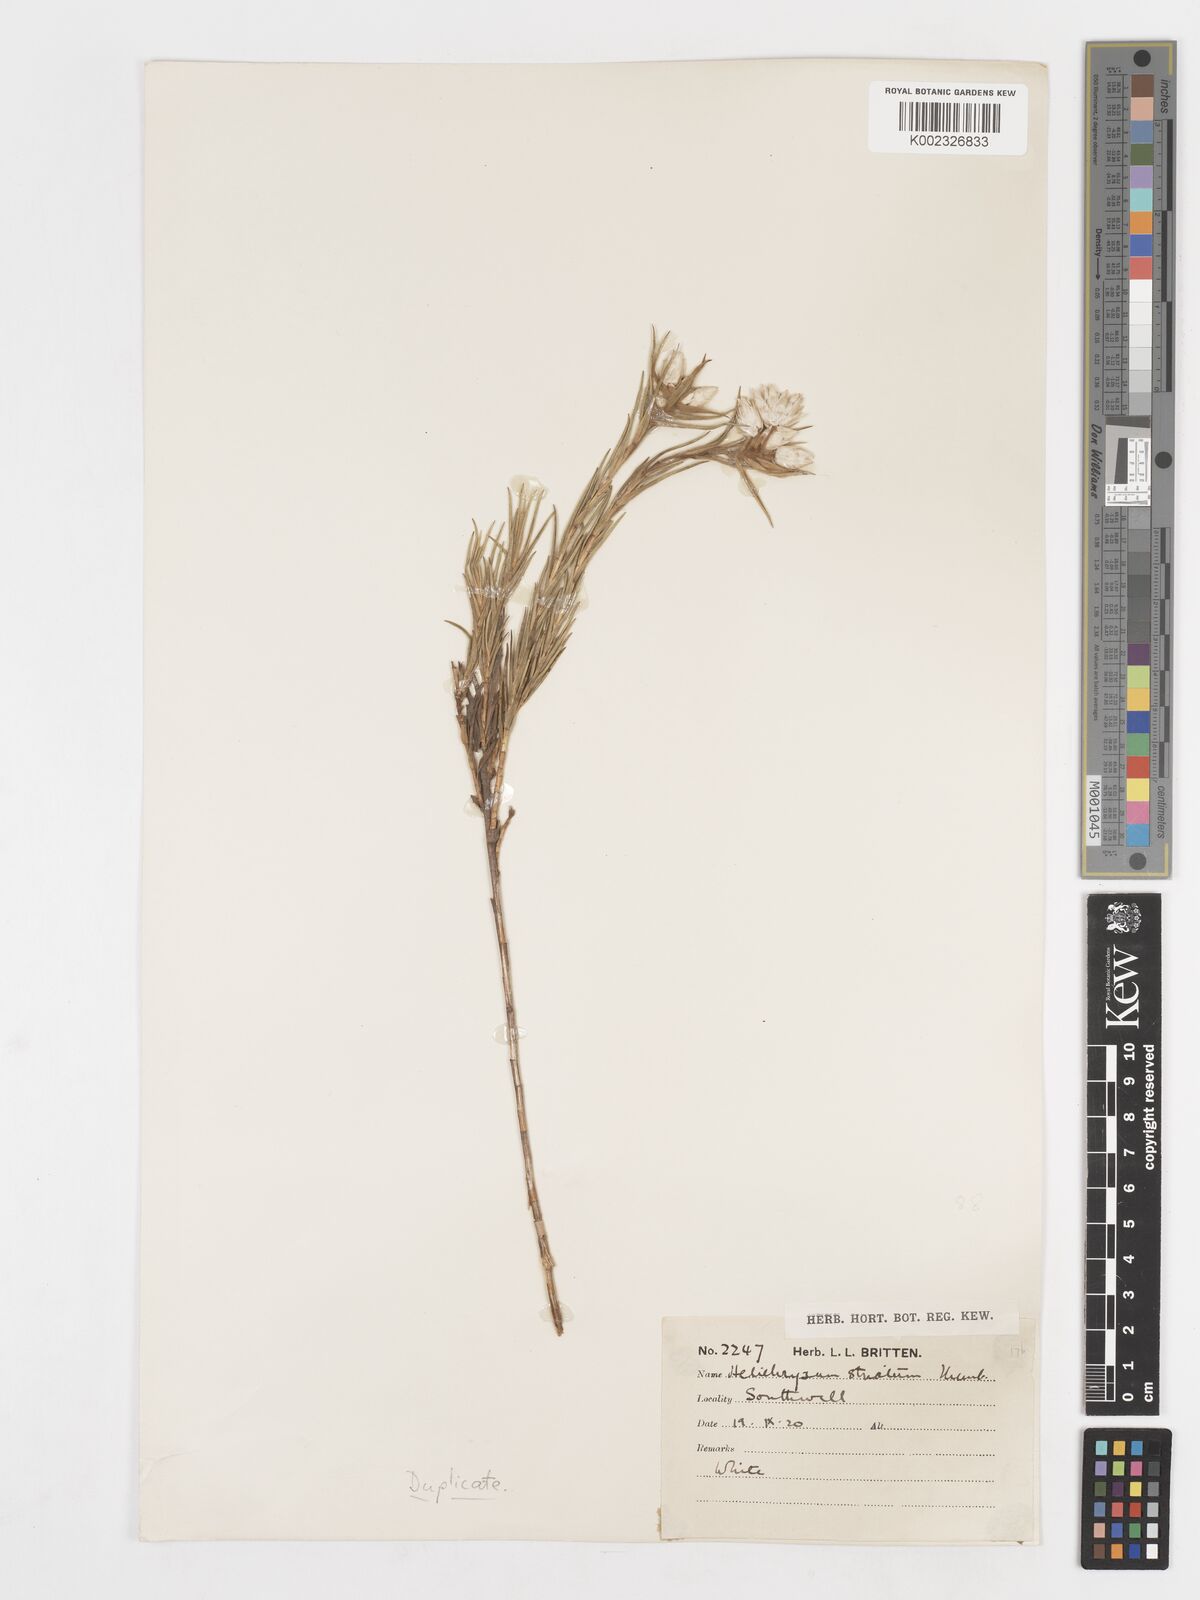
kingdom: Plantae
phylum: Tracheophyta
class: Magnoliopsida
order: Asterales
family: Asteraceae
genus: Achyranthemum
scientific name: Achyranthemum striatum
